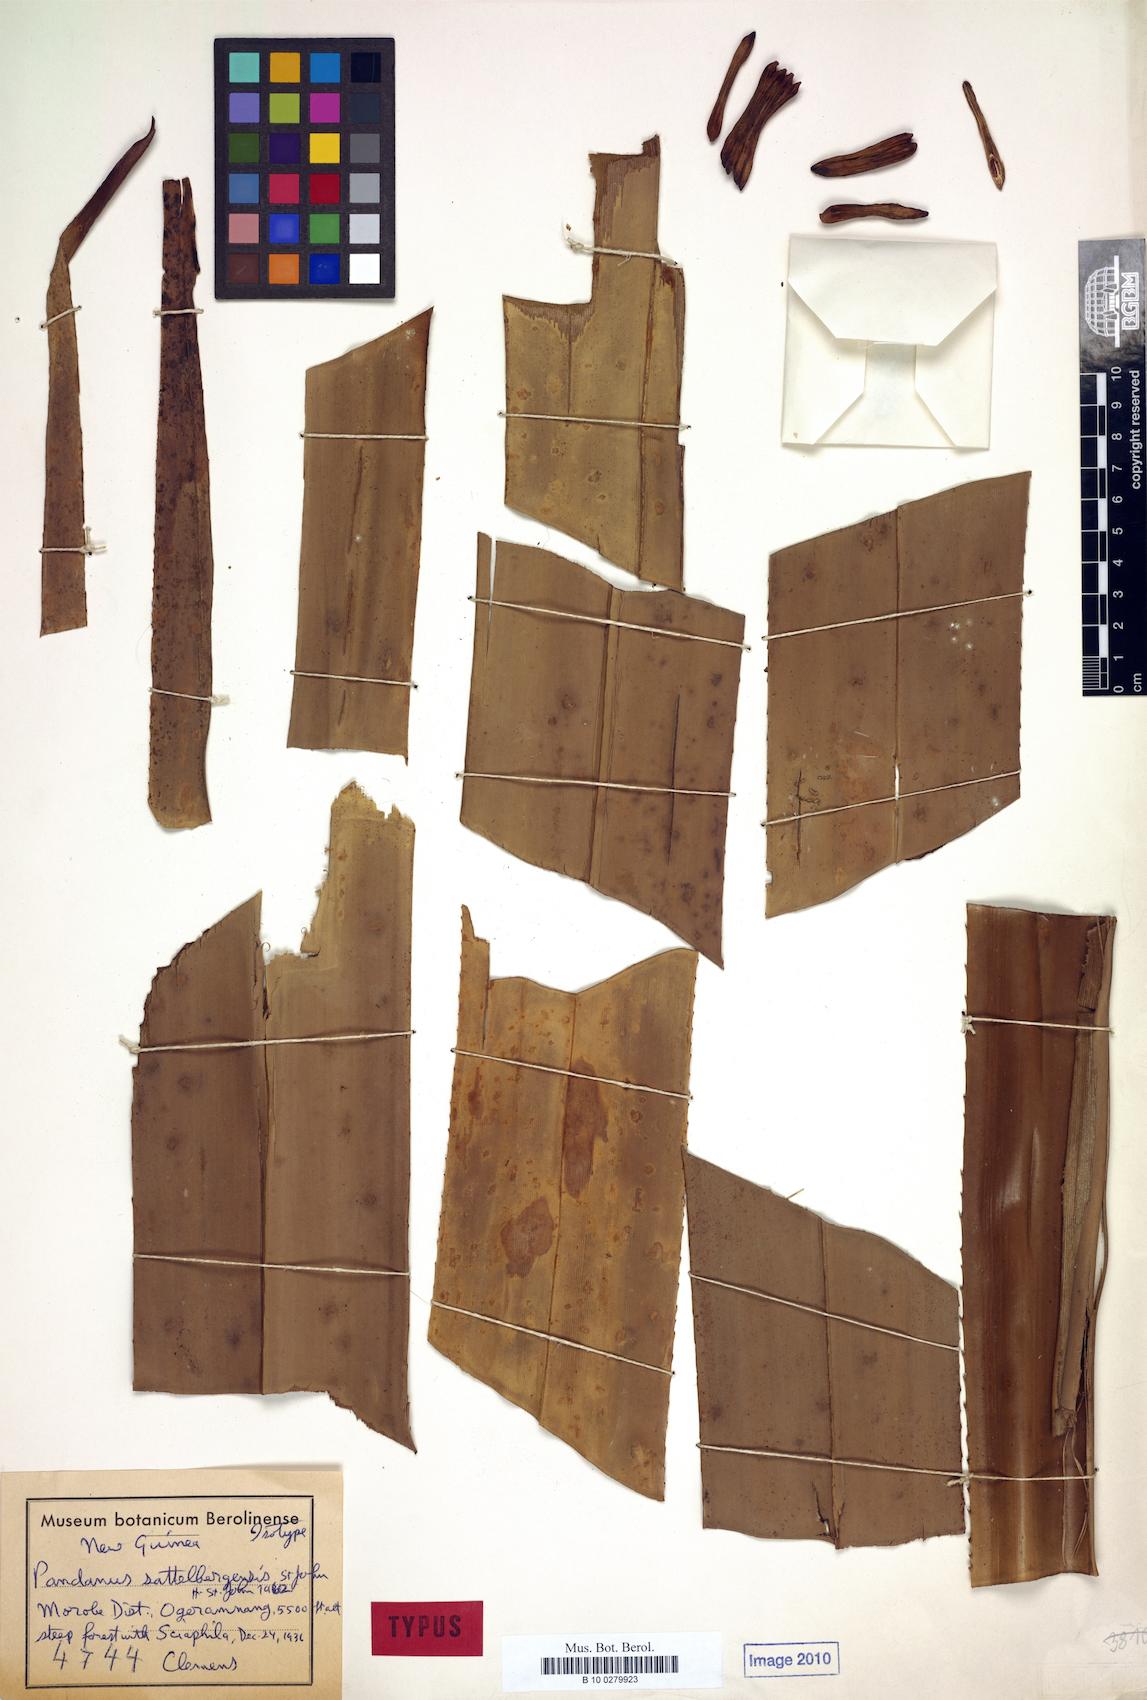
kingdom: Plantae
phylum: Tracheophyta
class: Liliopsida
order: Pandanales
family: Pandanaceae
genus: Pandanus
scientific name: Pandanus aggregatus
